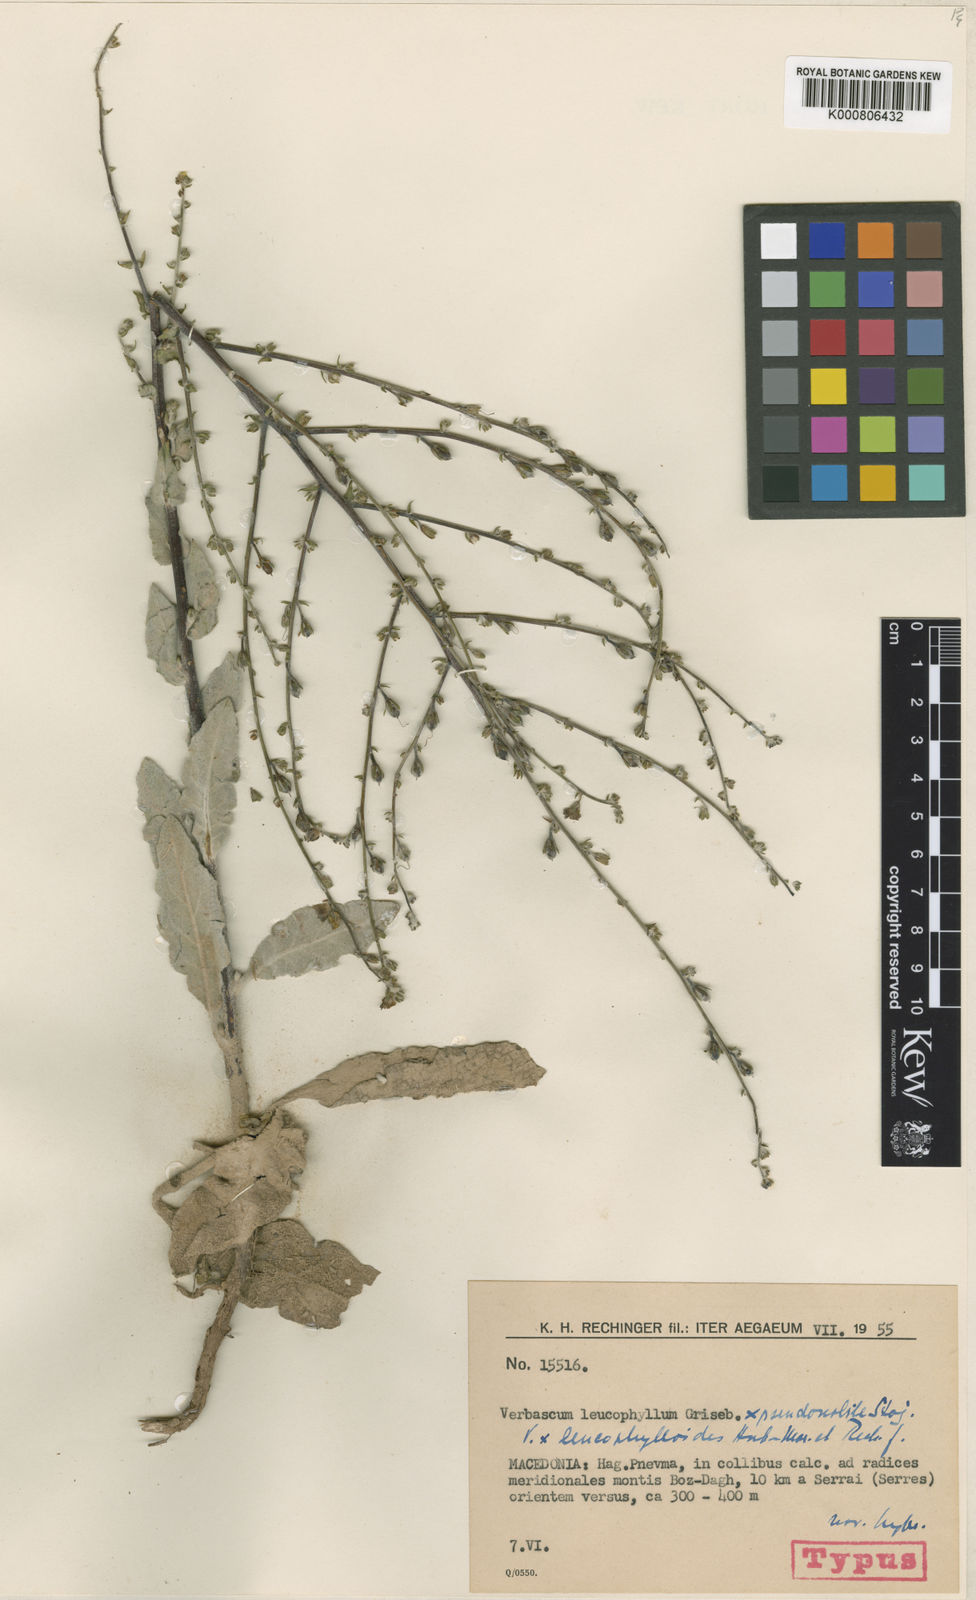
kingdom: Plantae
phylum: Tracheophyta
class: Magnoliopsida
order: Lamiales
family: Scrophulariaceae
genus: Verbascum
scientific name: Verbascum leucophylloides
